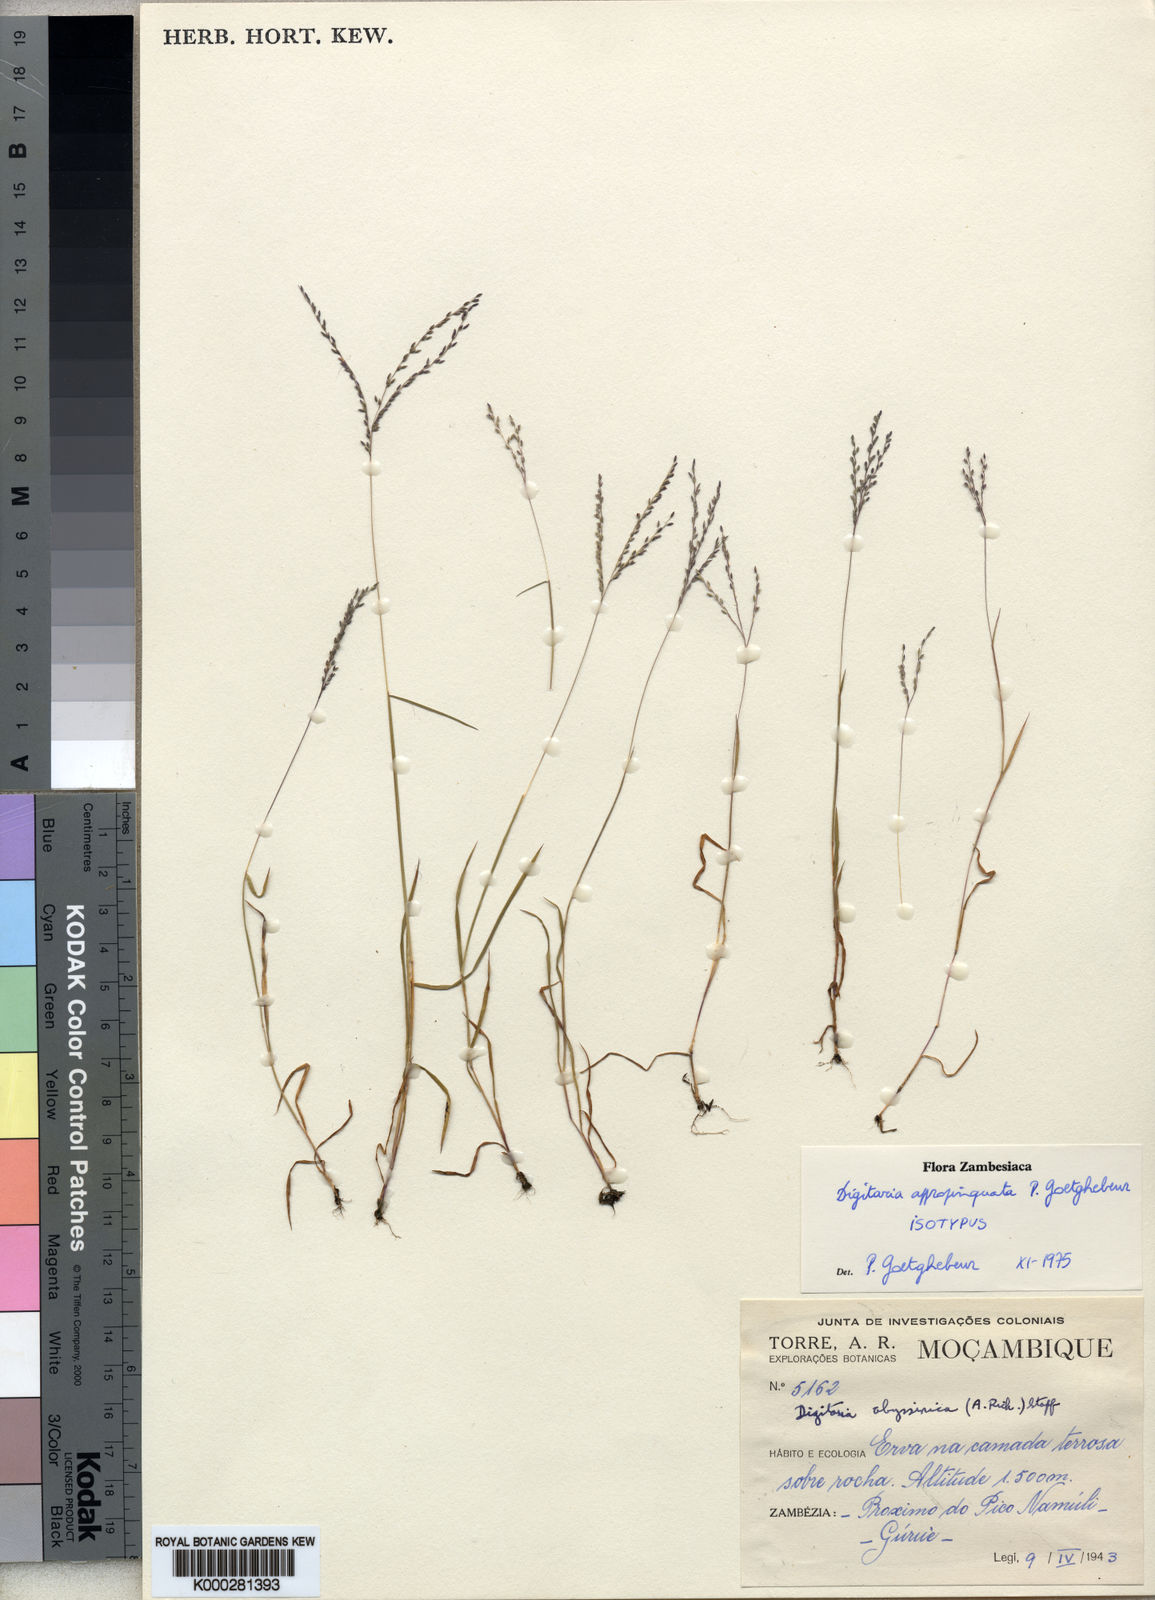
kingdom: Plantae
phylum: Tracheophyta
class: Liliopsida
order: Poales
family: Poaceae
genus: Digitaria
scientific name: Digitaria appropinquata
